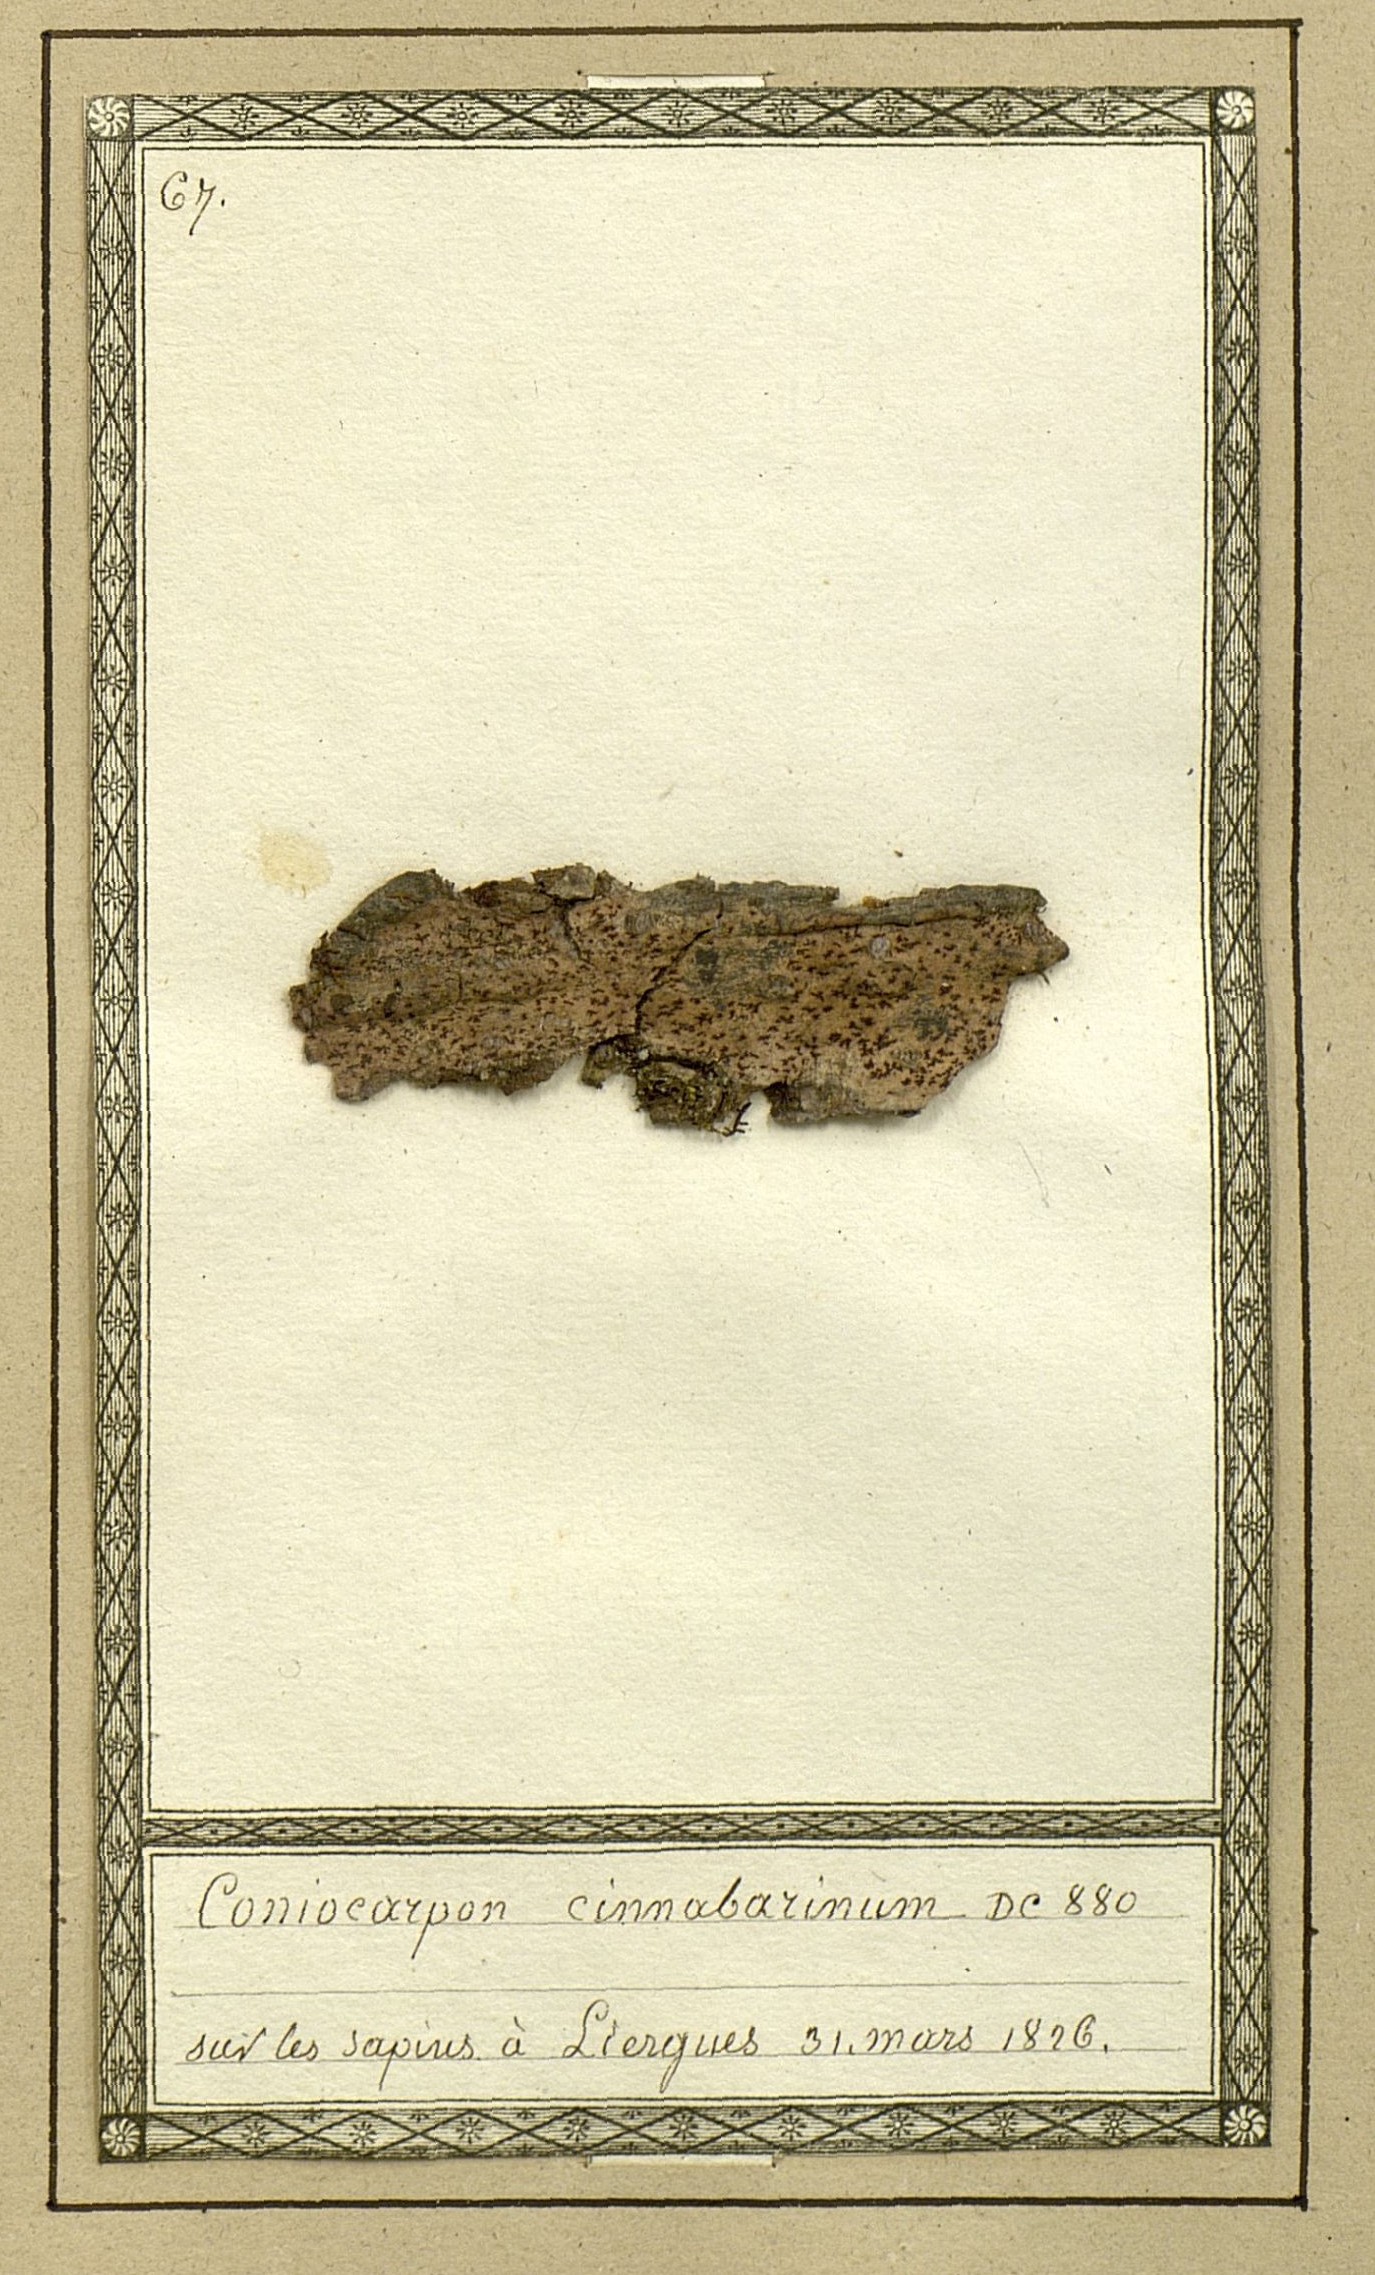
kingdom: Fungi
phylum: Ascomycota
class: Arthoniomycetes
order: Arthoniales
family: Arthoniaceae
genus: Coniocarpon
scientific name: Coniocarpon cinnabarinum
